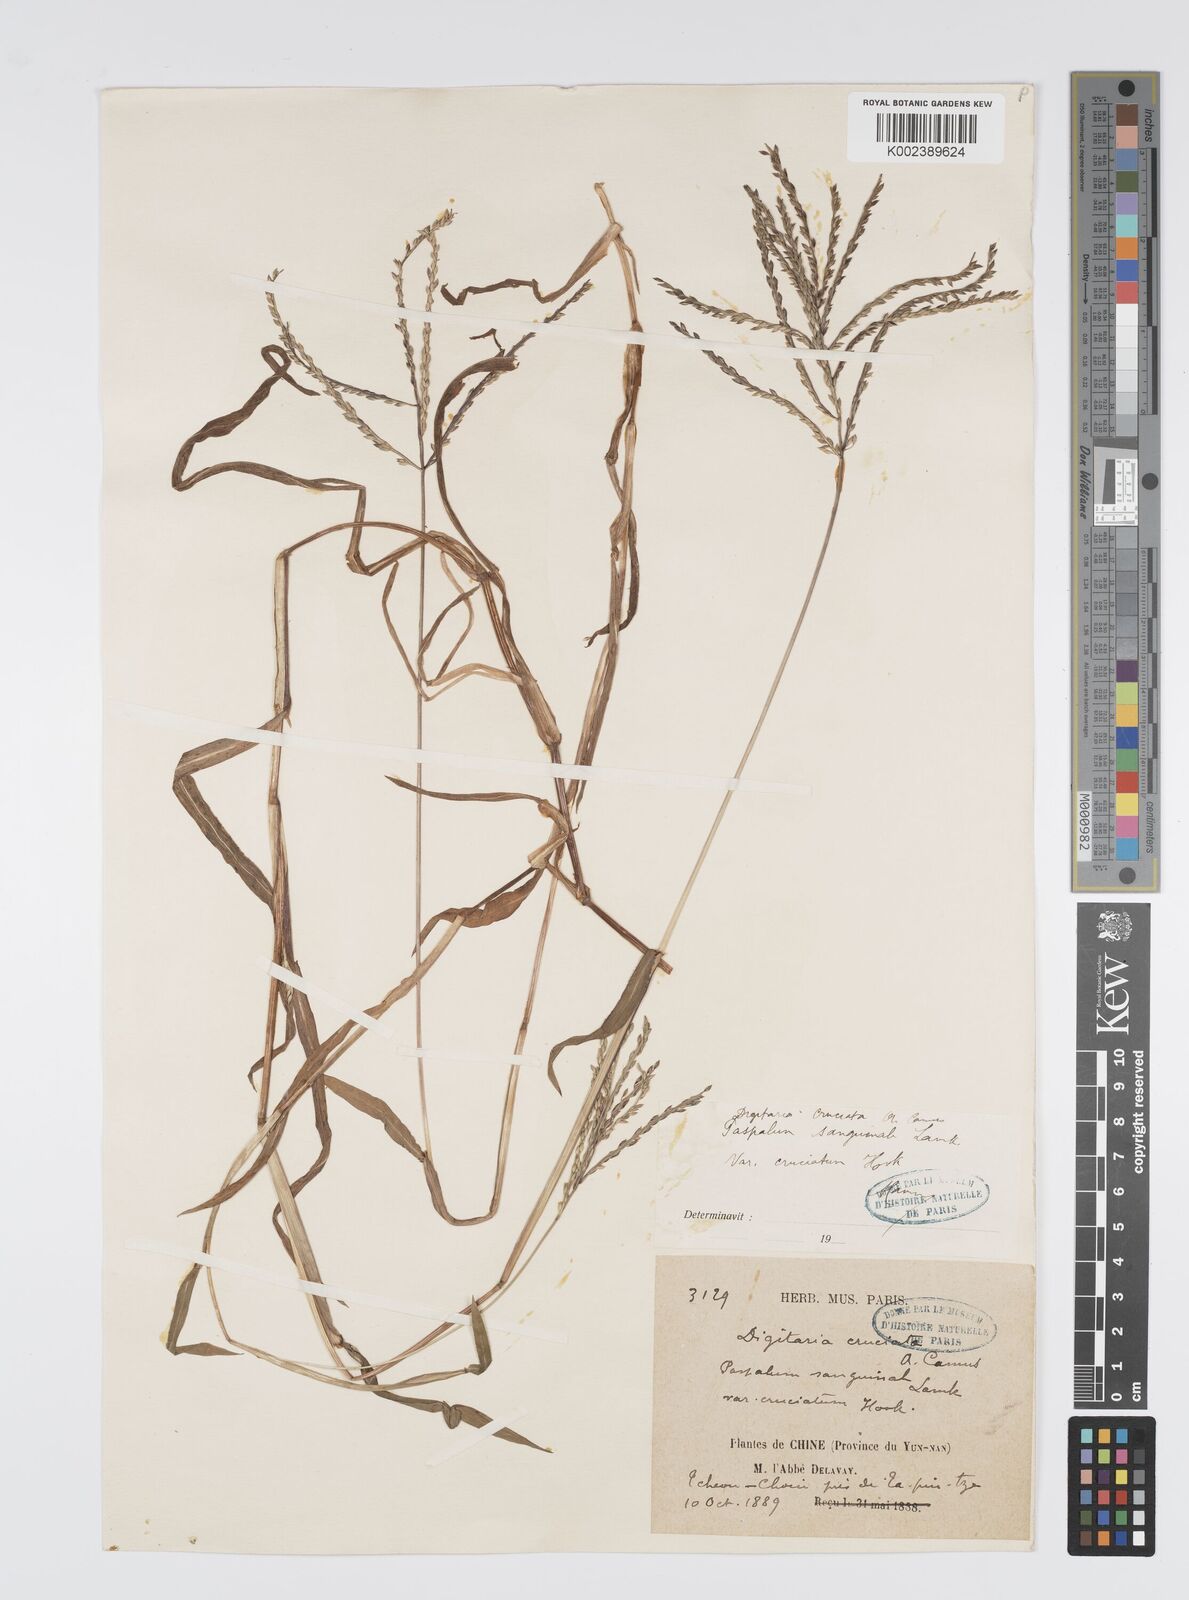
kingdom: Plantae
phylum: Tracheophyta
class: Liliopsida
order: Poales
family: Poaceae
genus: Digitaria
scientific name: Digitaria cruciata
